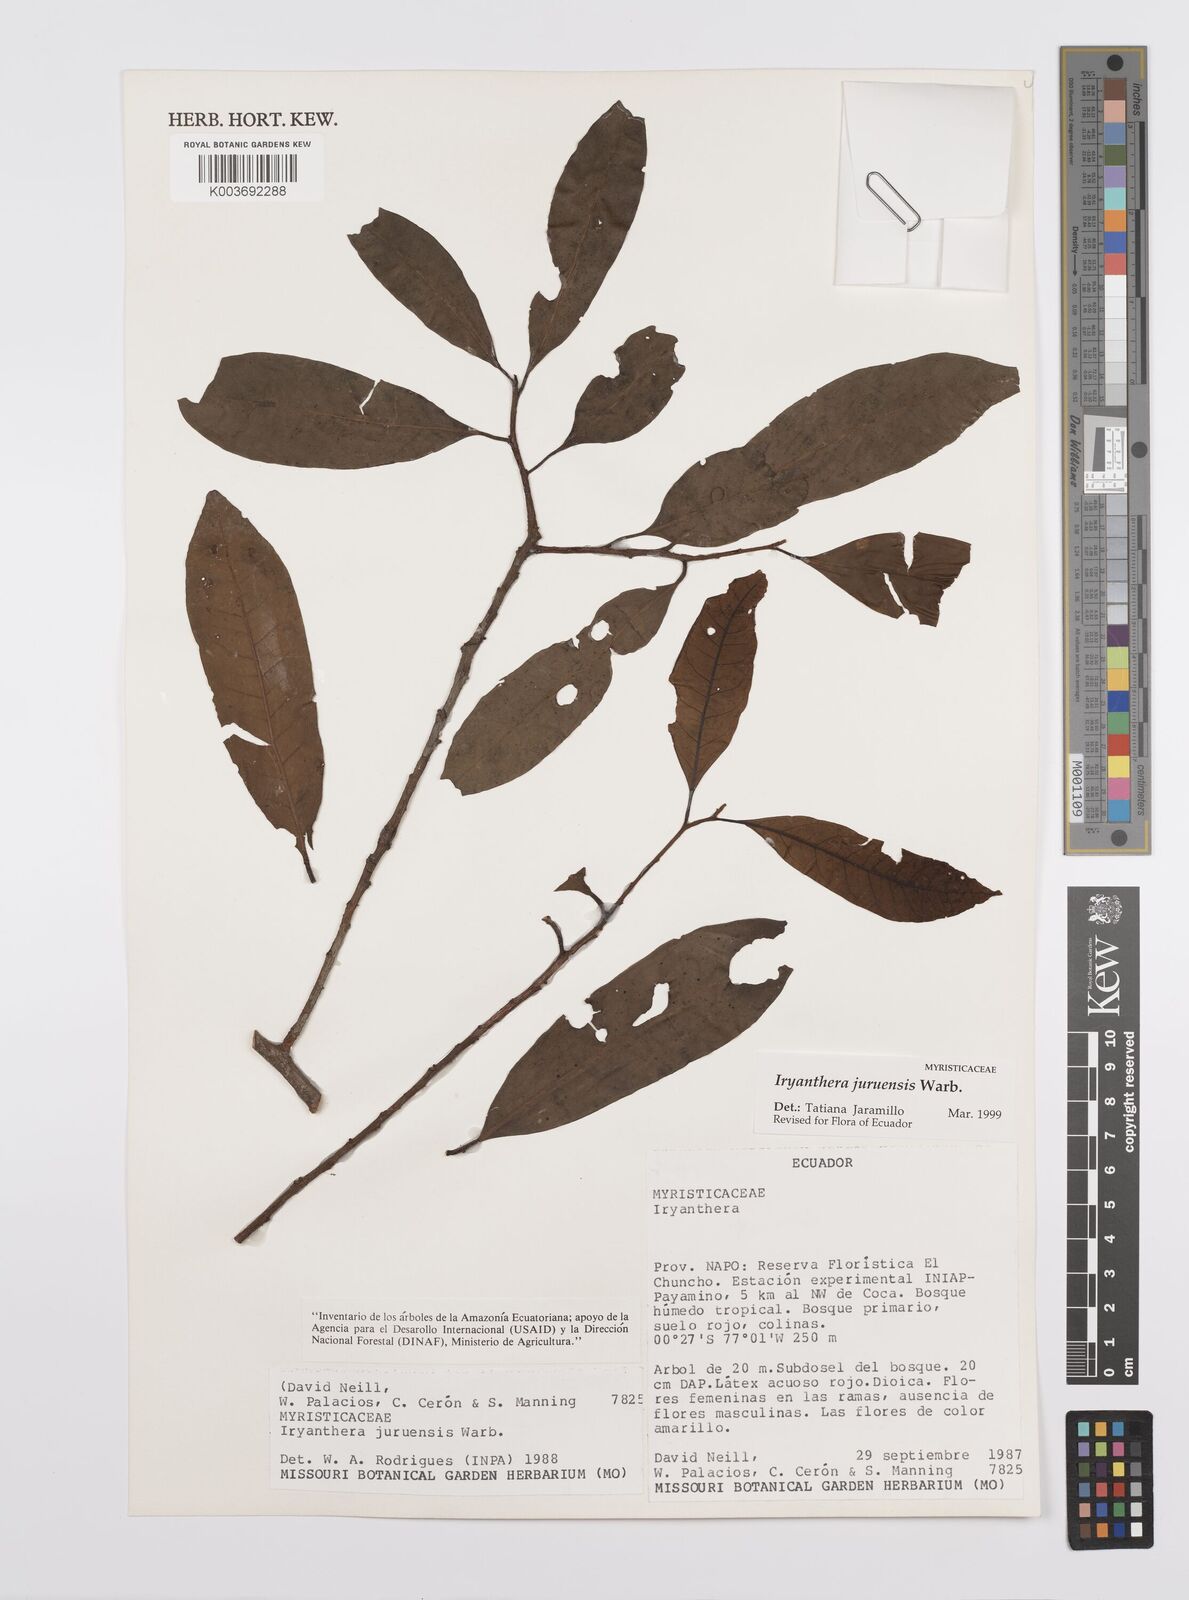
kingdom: Plantae
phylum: Tracheophyta
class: Magnoliopsida
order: Magnoliales
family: Myristicaceae
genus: Iryanthera
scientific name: Iryanthera juruensis
